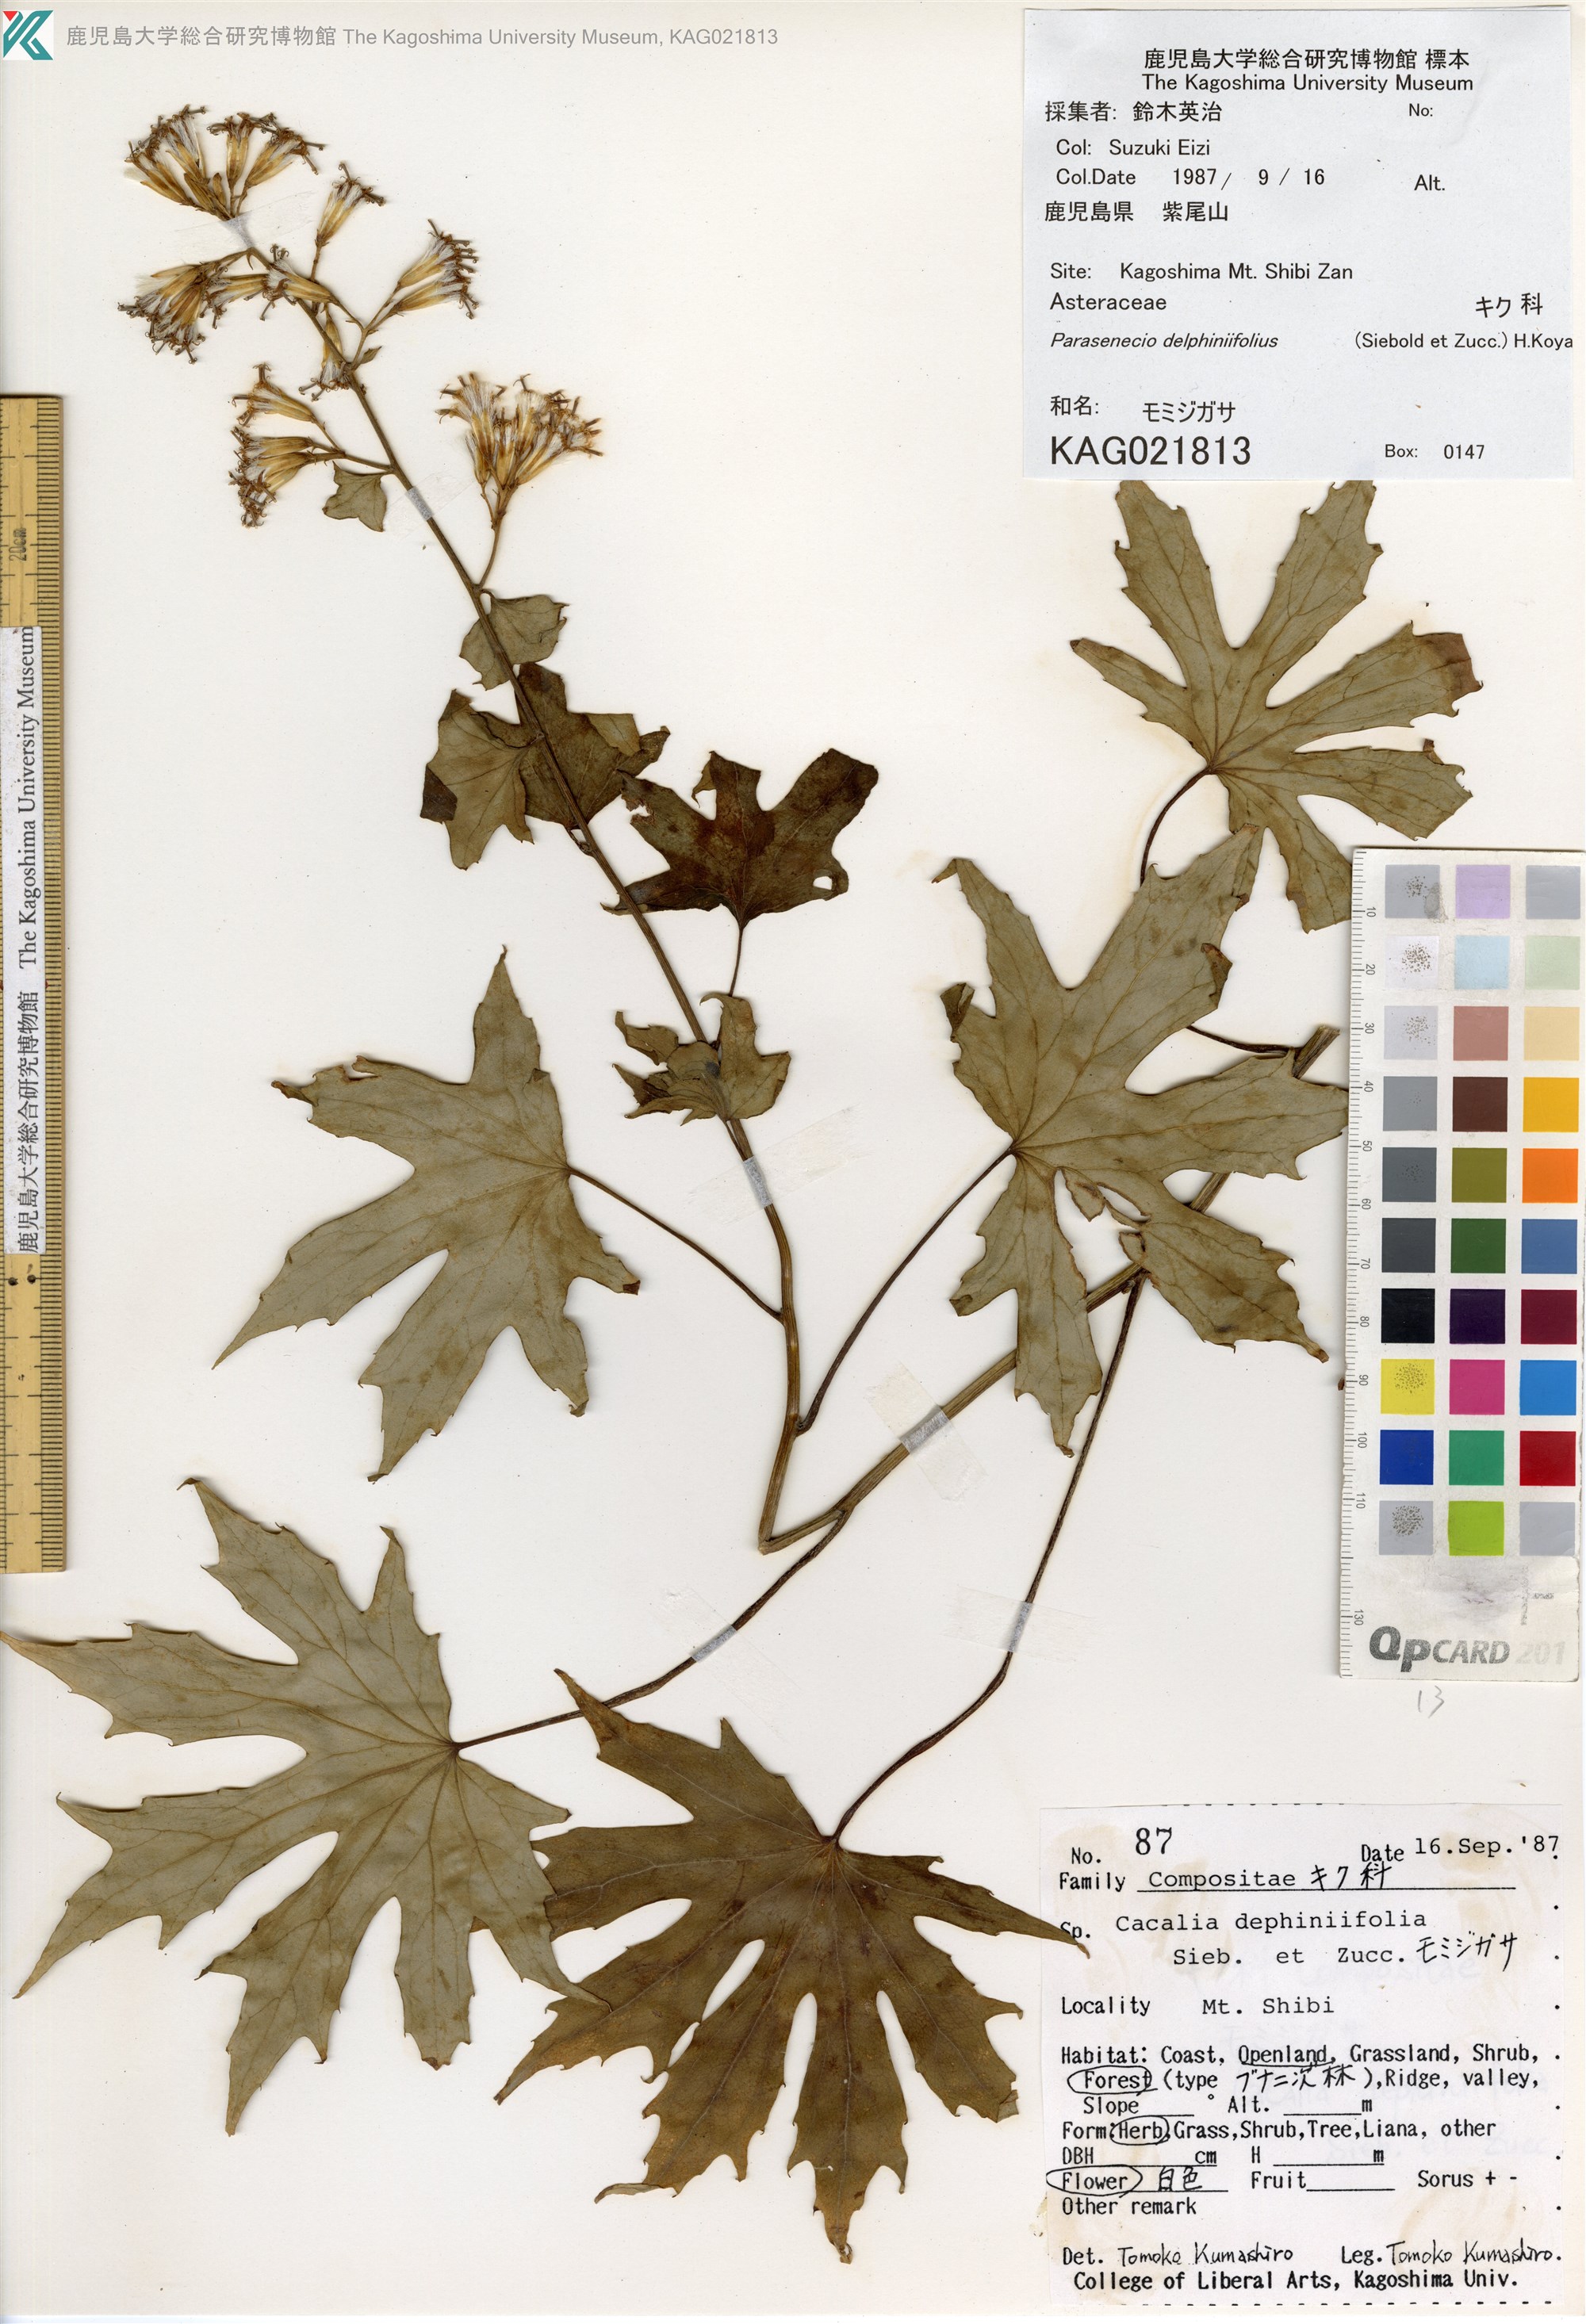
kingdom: Plantae
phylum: Tracheophyta
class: Magnoliopsida
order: Asterales
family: Asteraceae
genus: Japonicalia
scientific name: Japonicalia delphiniifolia
